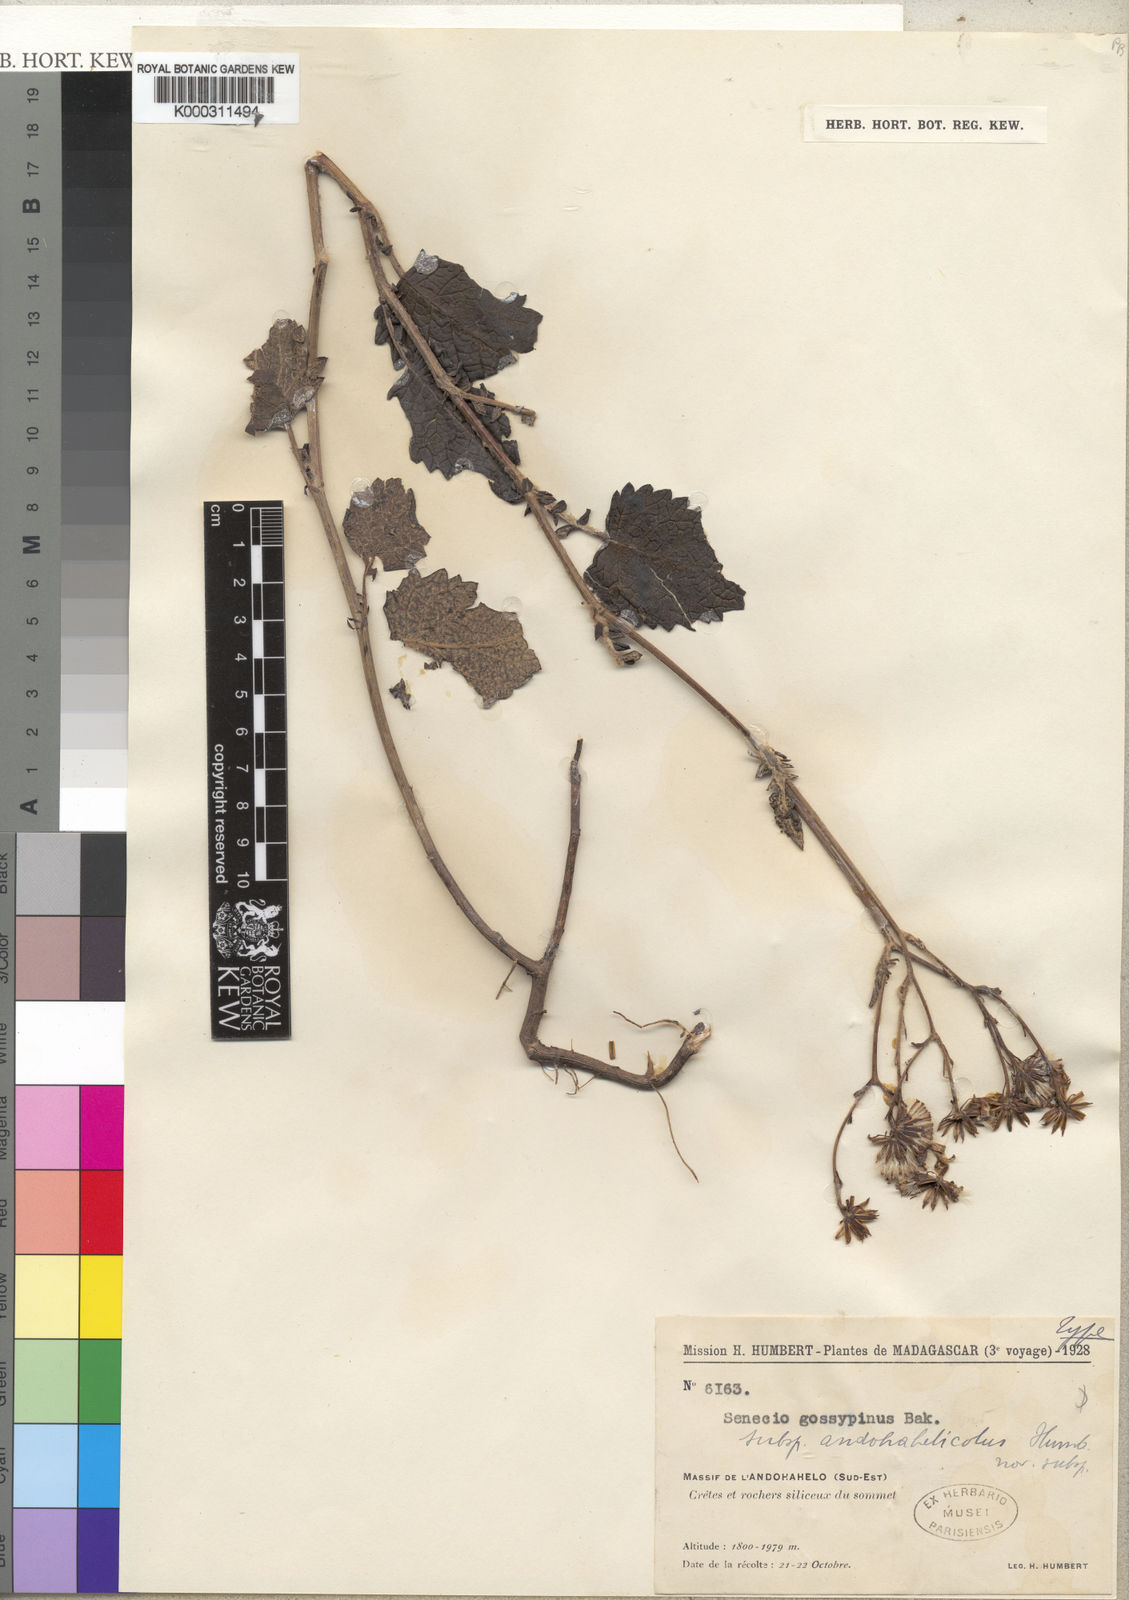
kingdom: Plantae
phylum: Tracheophyta
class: Magnoliopsida
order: Asterales
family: Asteraceae
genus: Senecio
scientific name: Senecio gossypinus
